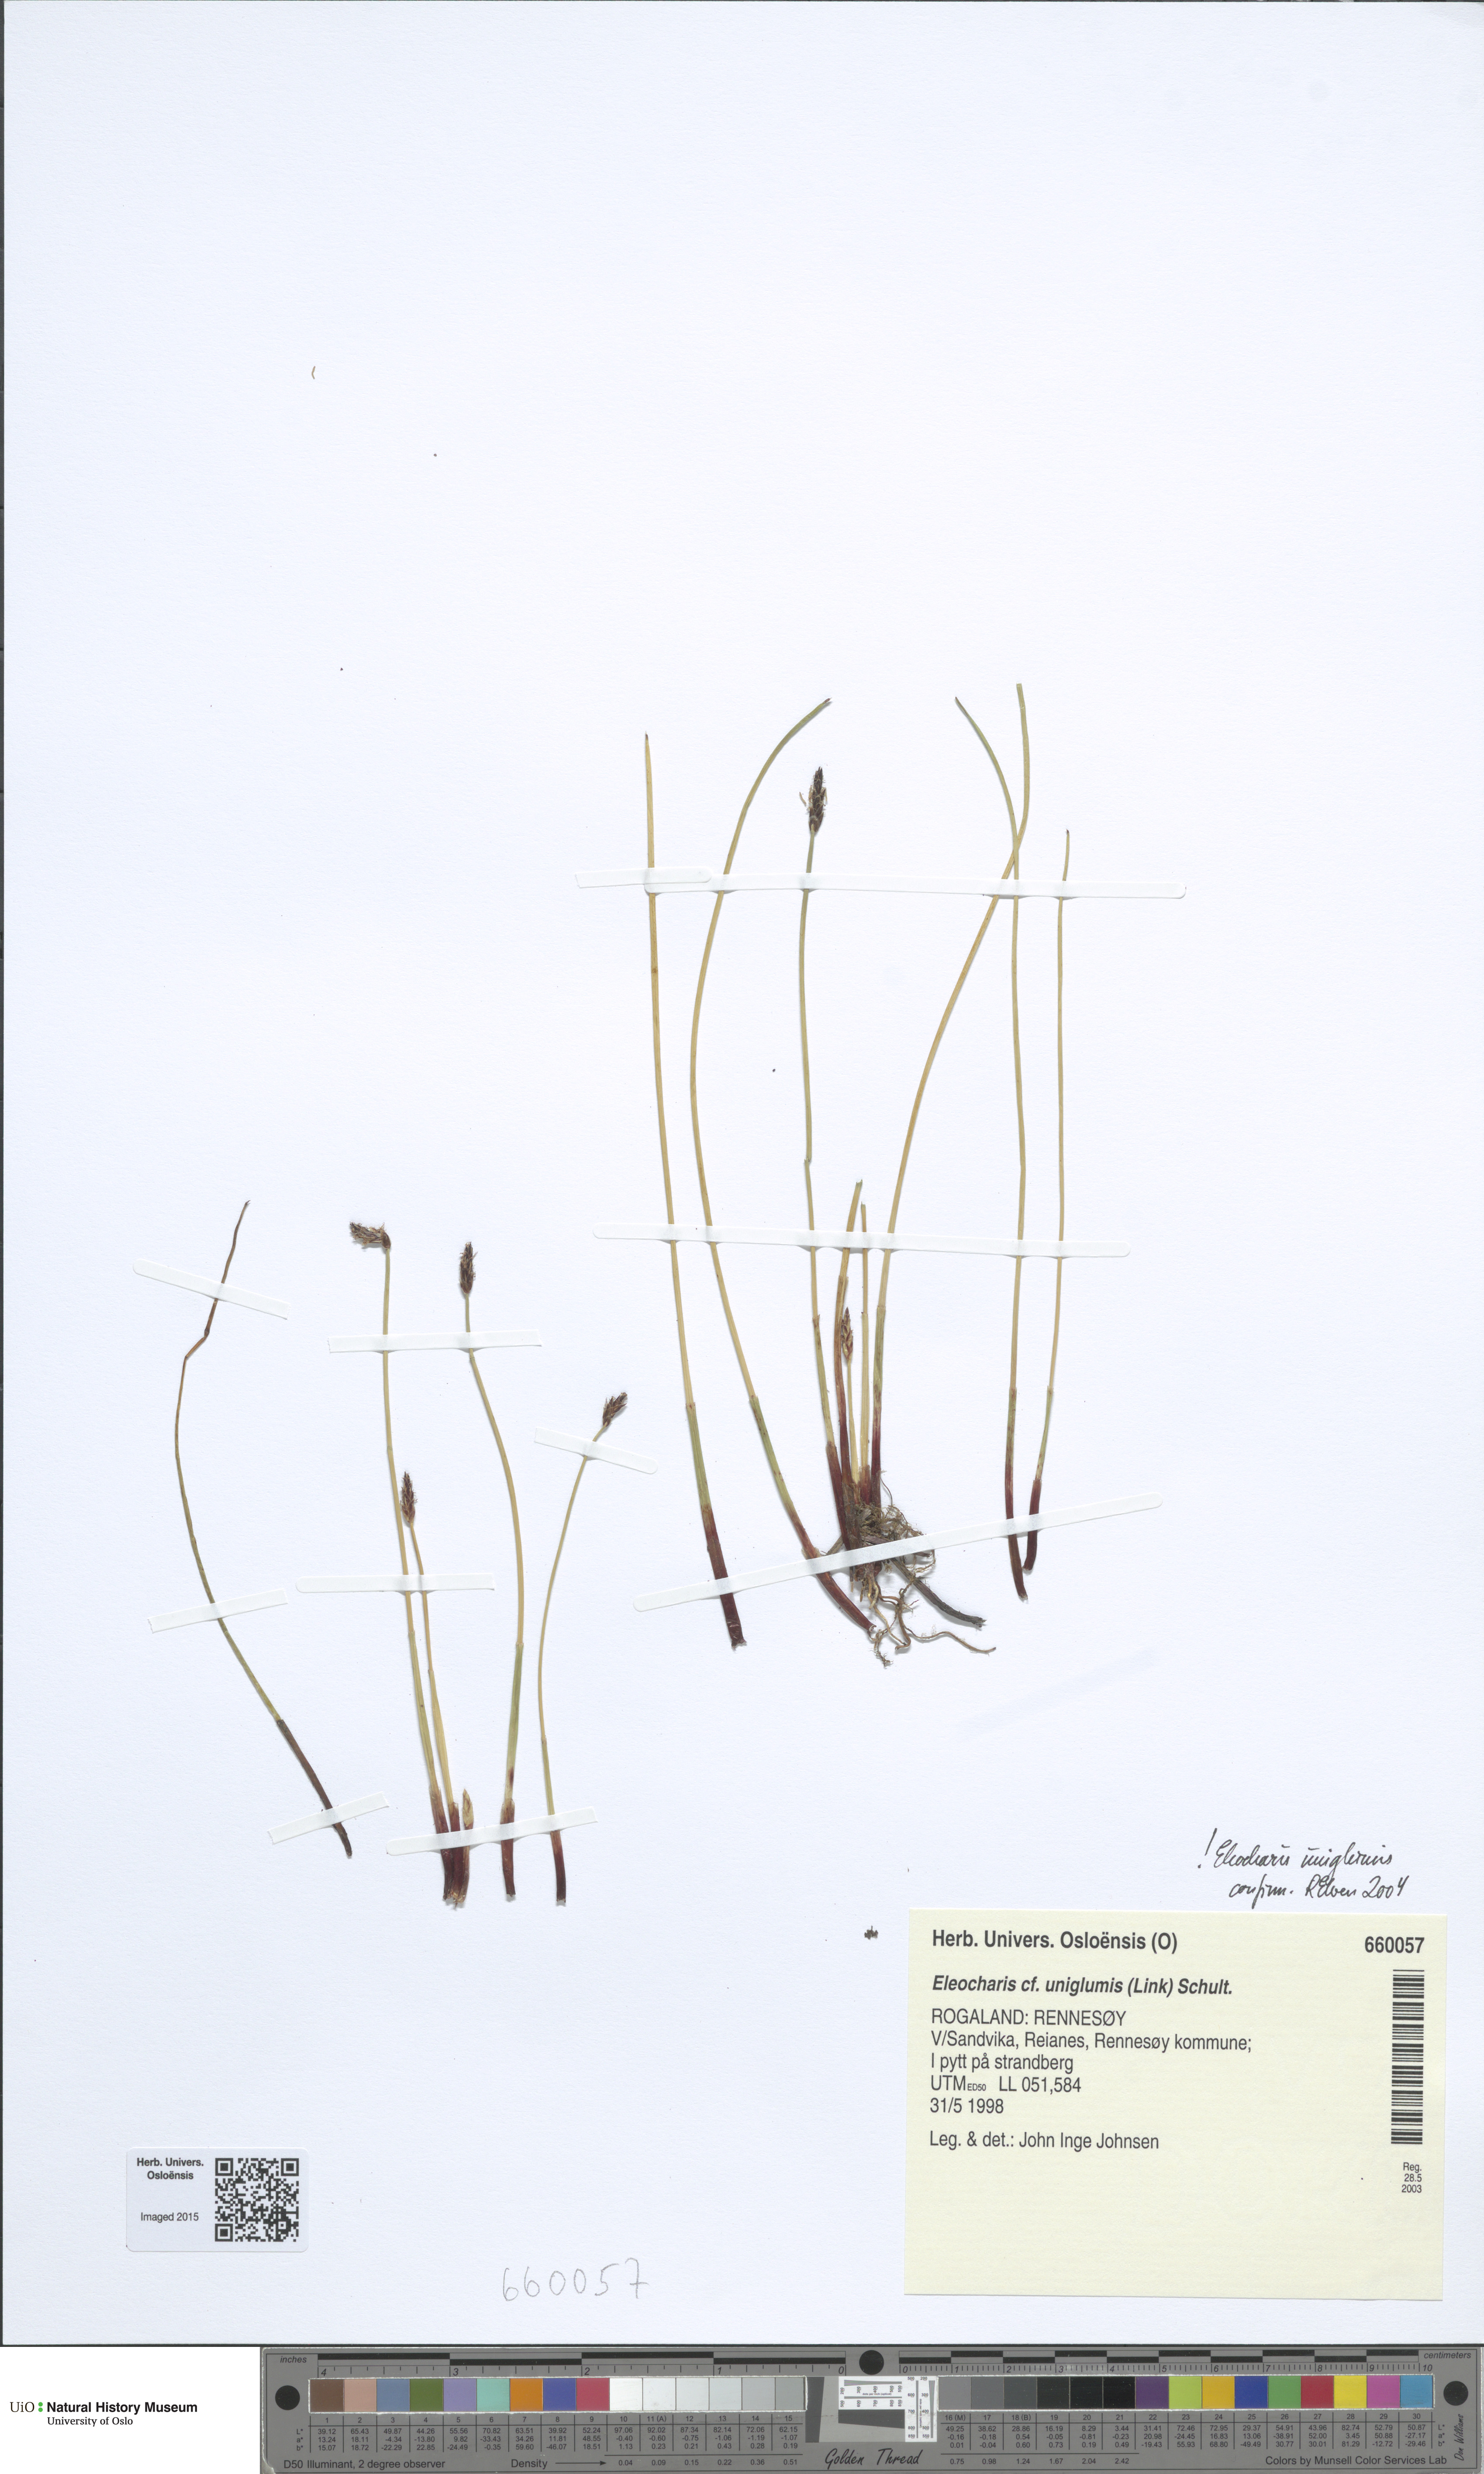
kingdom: Plantae
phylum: Tracheophyta
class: Liliopsida
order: Poales
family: Cyperaceae
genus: Eleocharis
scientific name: Eleocharis uniglumis
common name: Slender spike-rush
